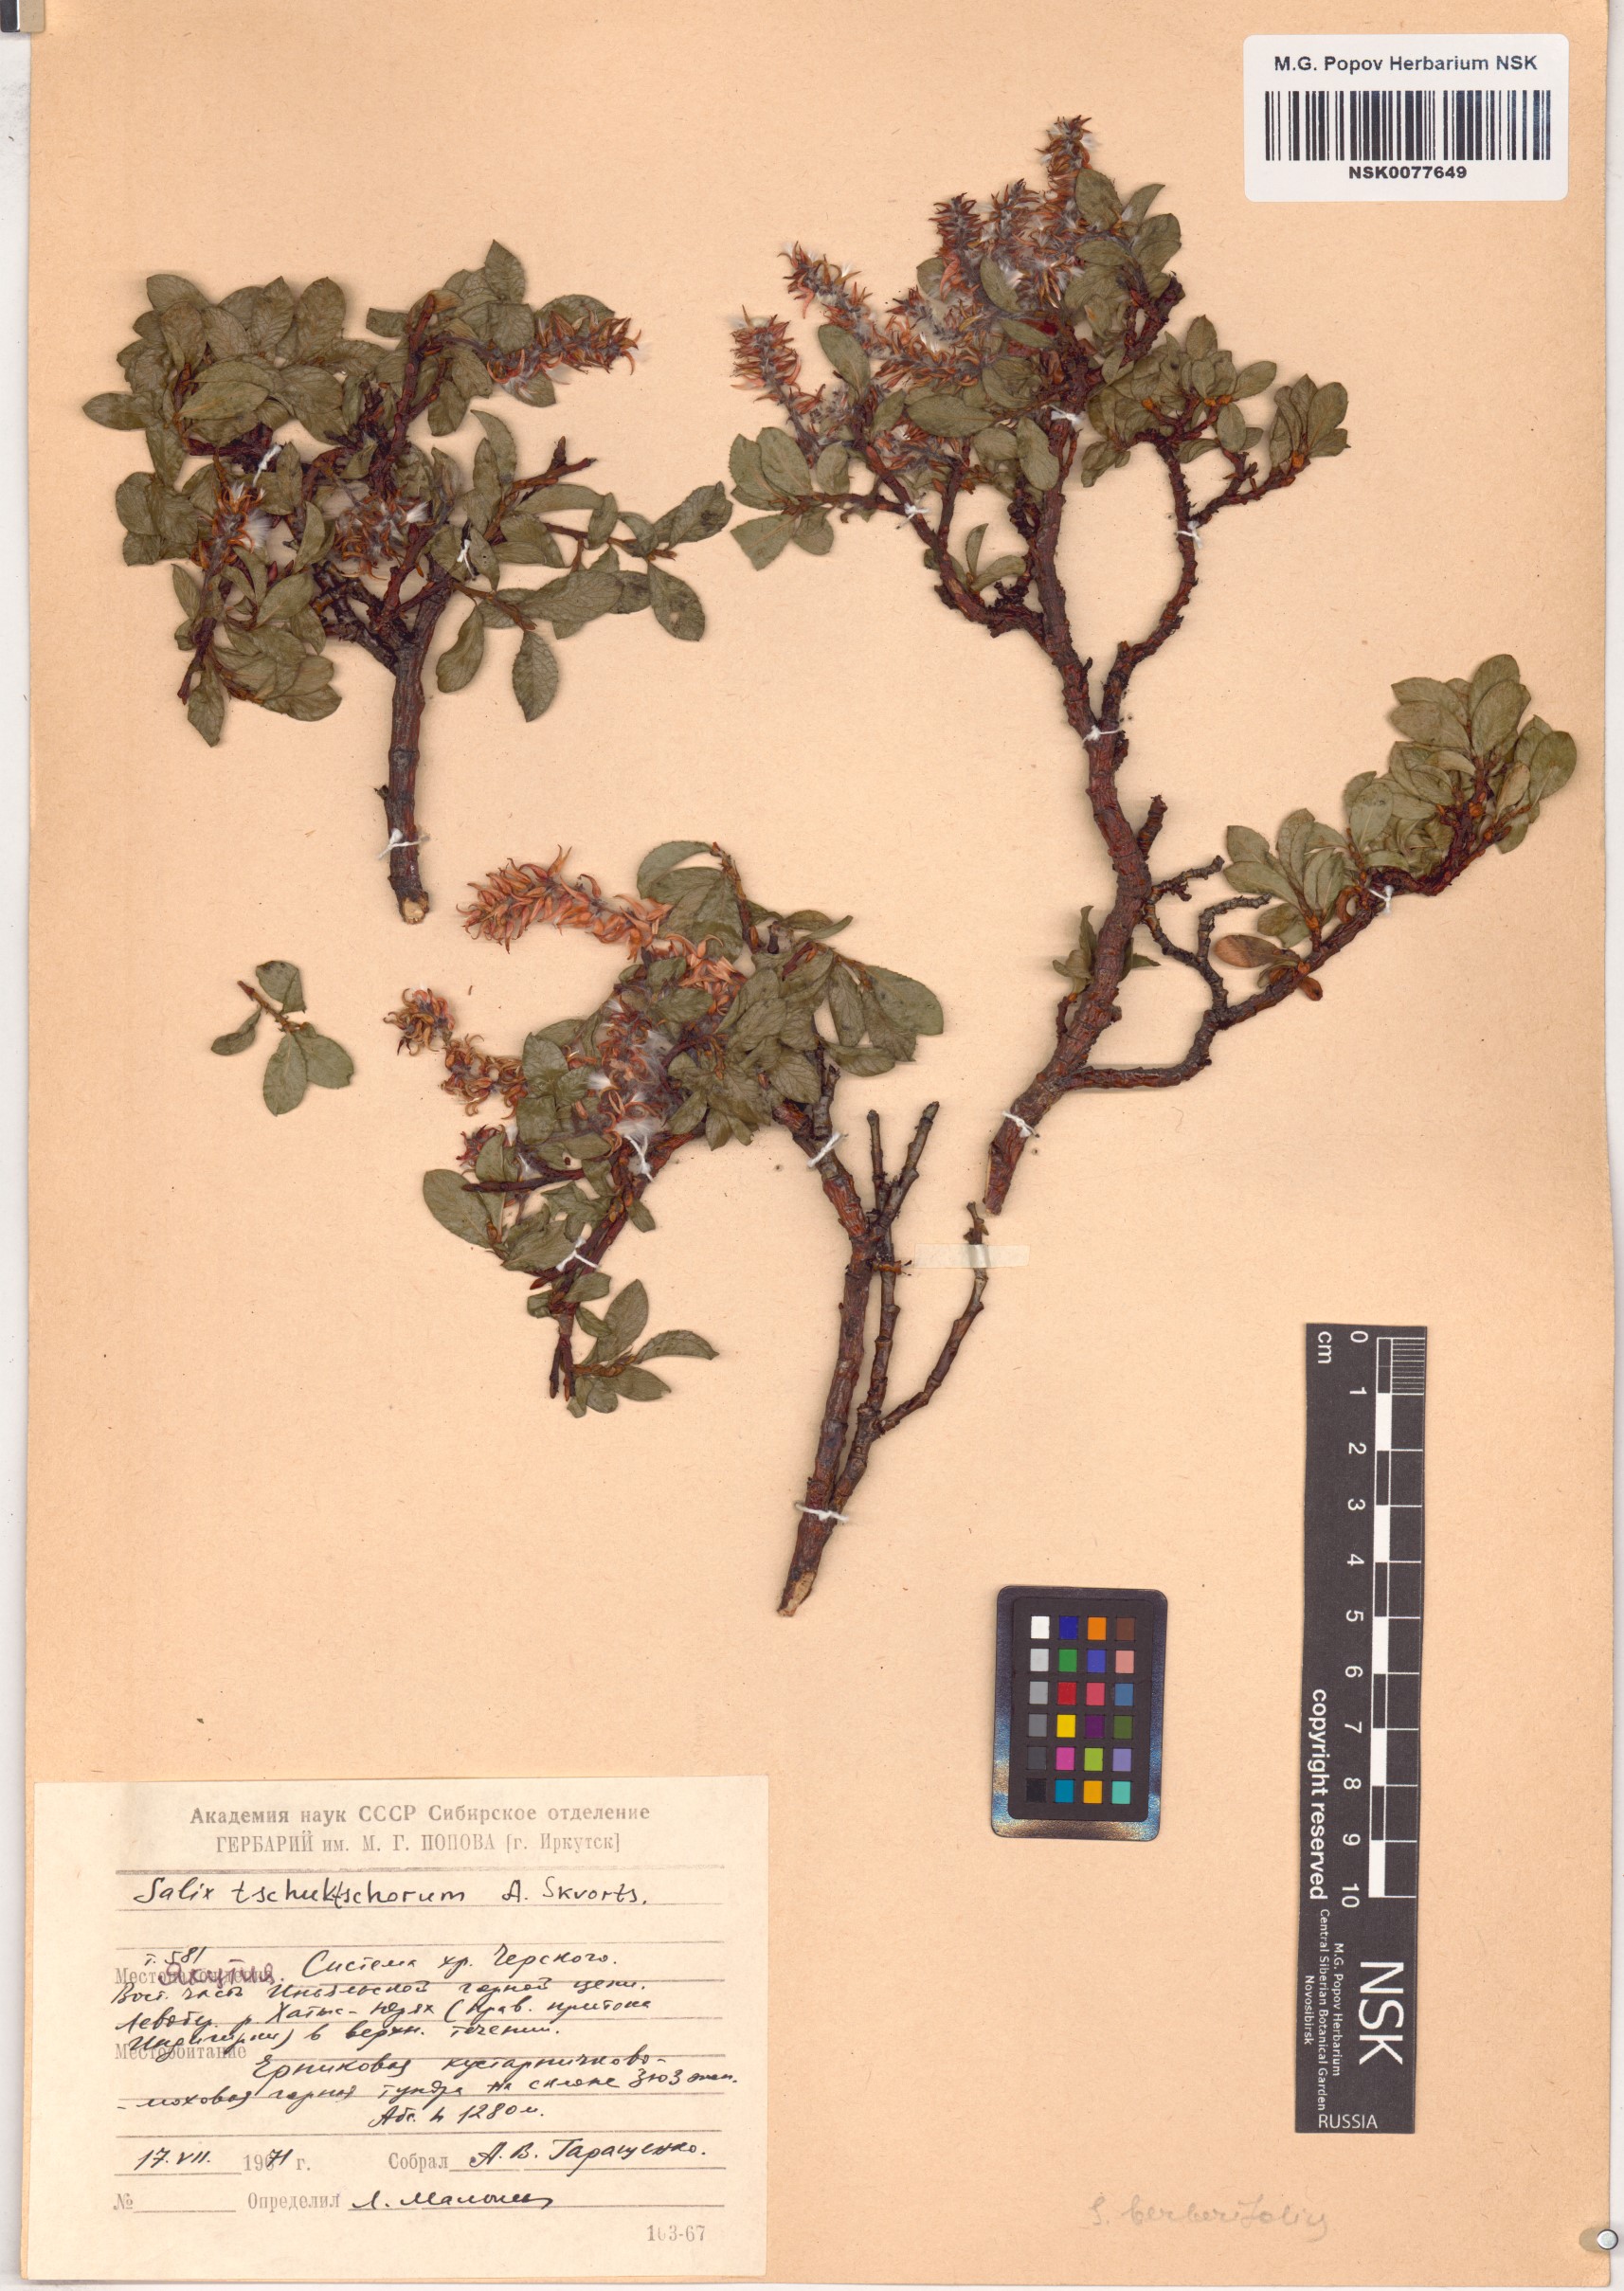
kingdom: Plantae
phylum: Tracheophyta
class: Magnoliopsida
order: Malpighiales
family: Salicaceae
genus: Salix
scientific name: Salix tschuktschorum
